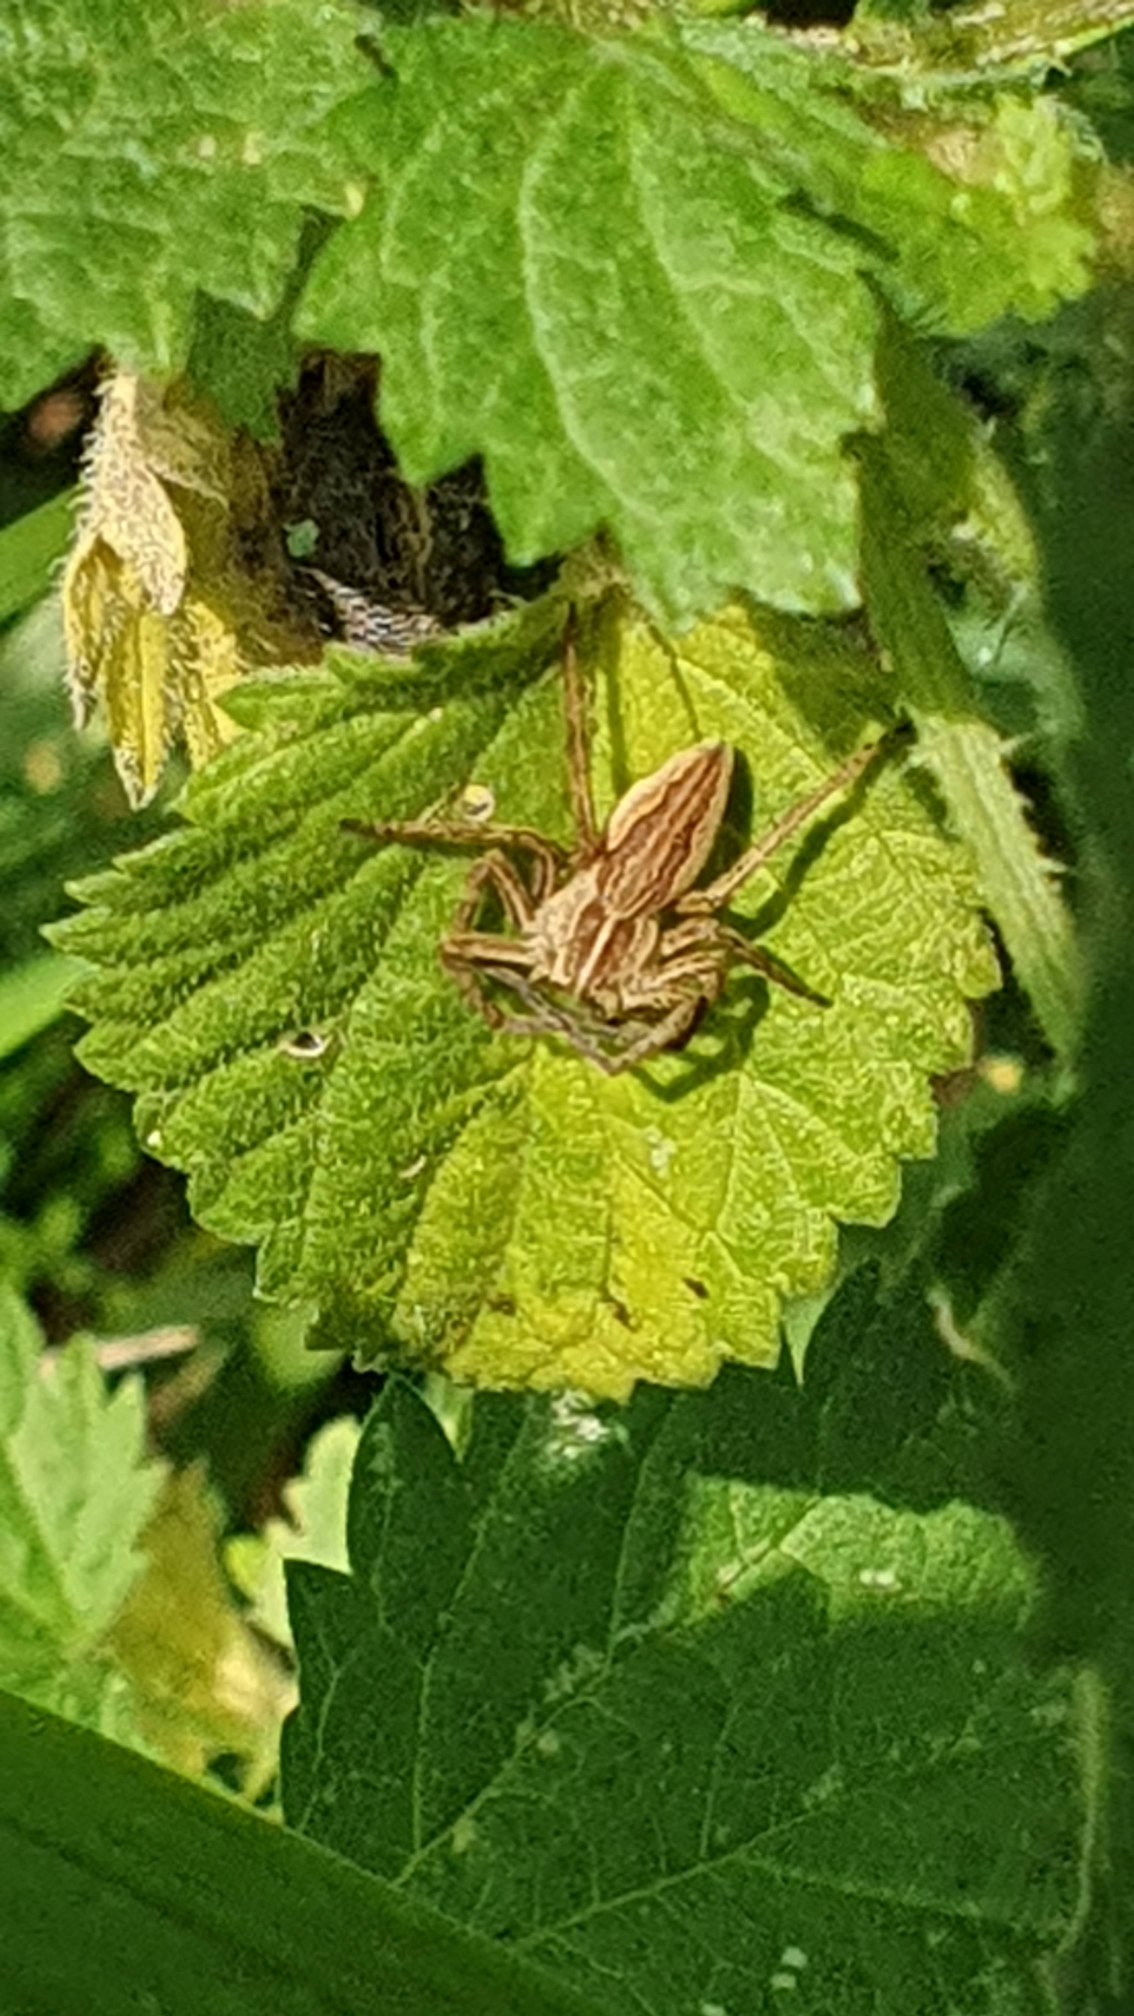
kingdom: Animalia
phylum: Arthropoda
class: Arachnida
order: Araneae
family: Pisauridae
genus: Pisaura
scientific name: Pisaura mirabilis
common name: Almindelig rovedderkop
